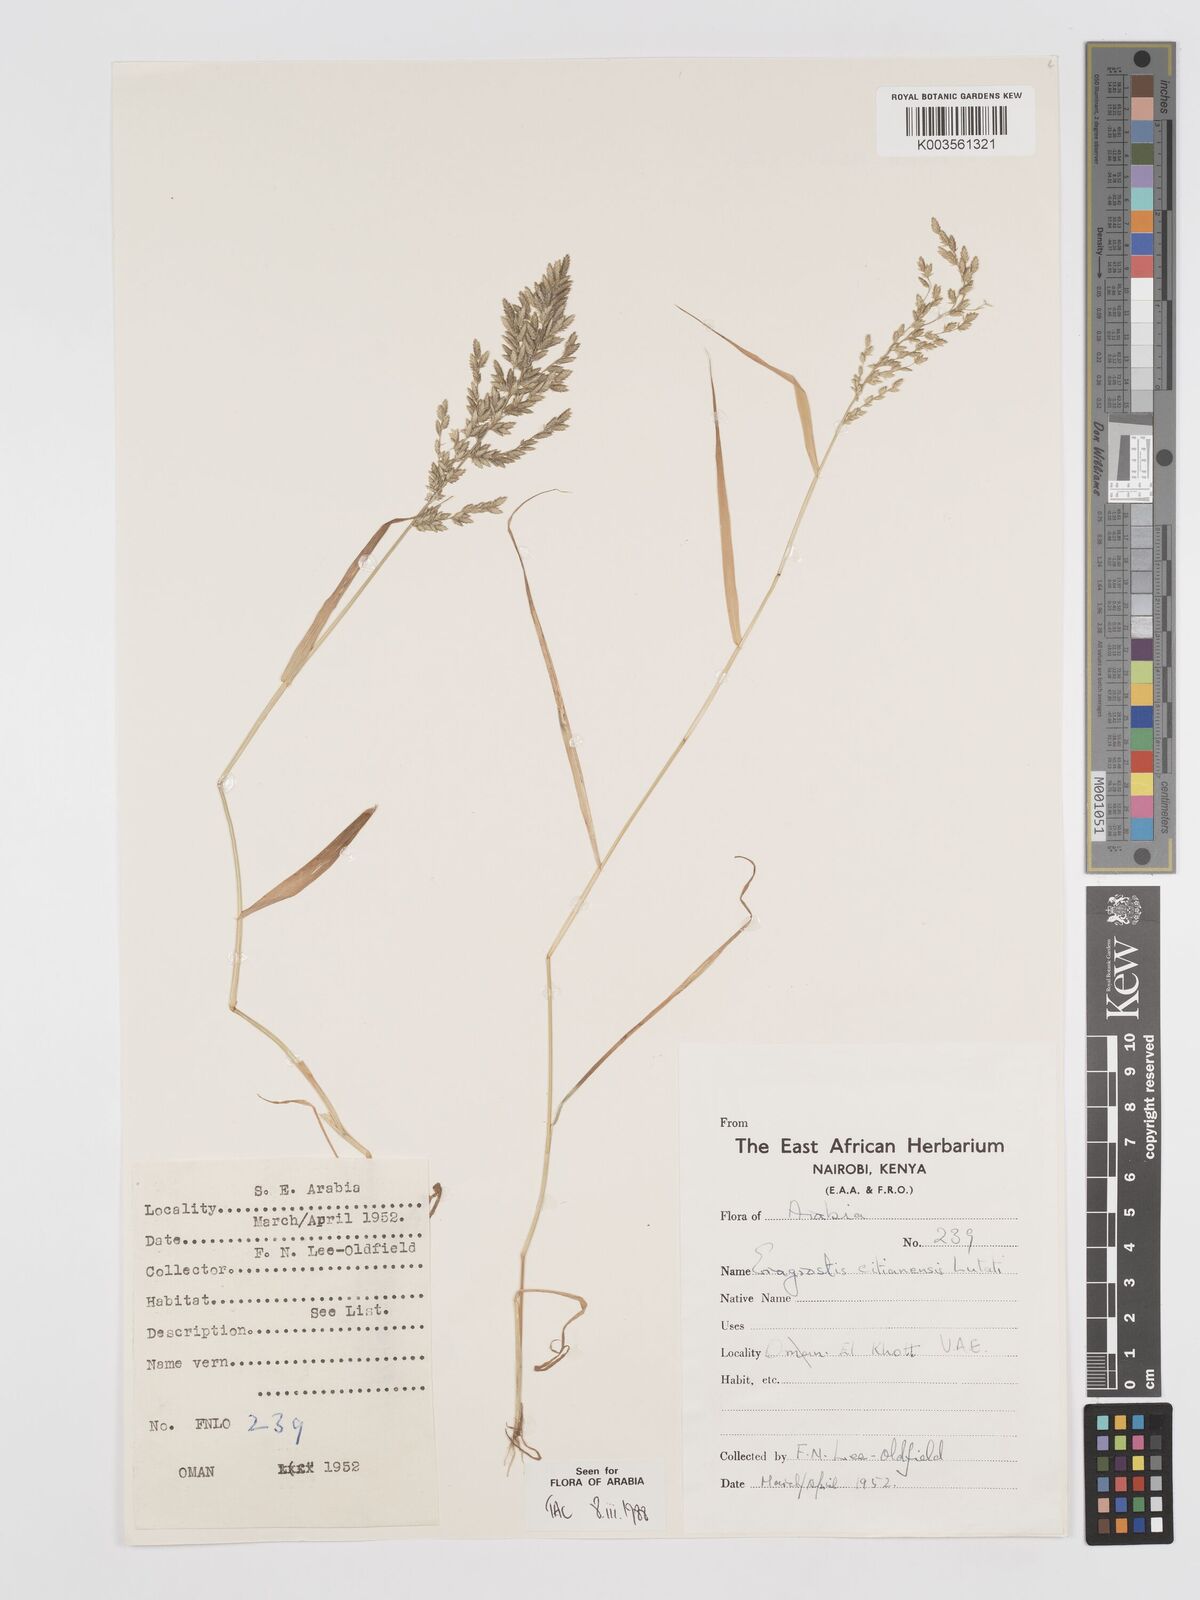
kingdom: Plantae
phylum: Tracheophyta
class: Liliopsida
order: Poales
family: Poaceae
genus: Eragrostis
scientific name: Eragrostis cilianensis
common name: Stinkgrass
